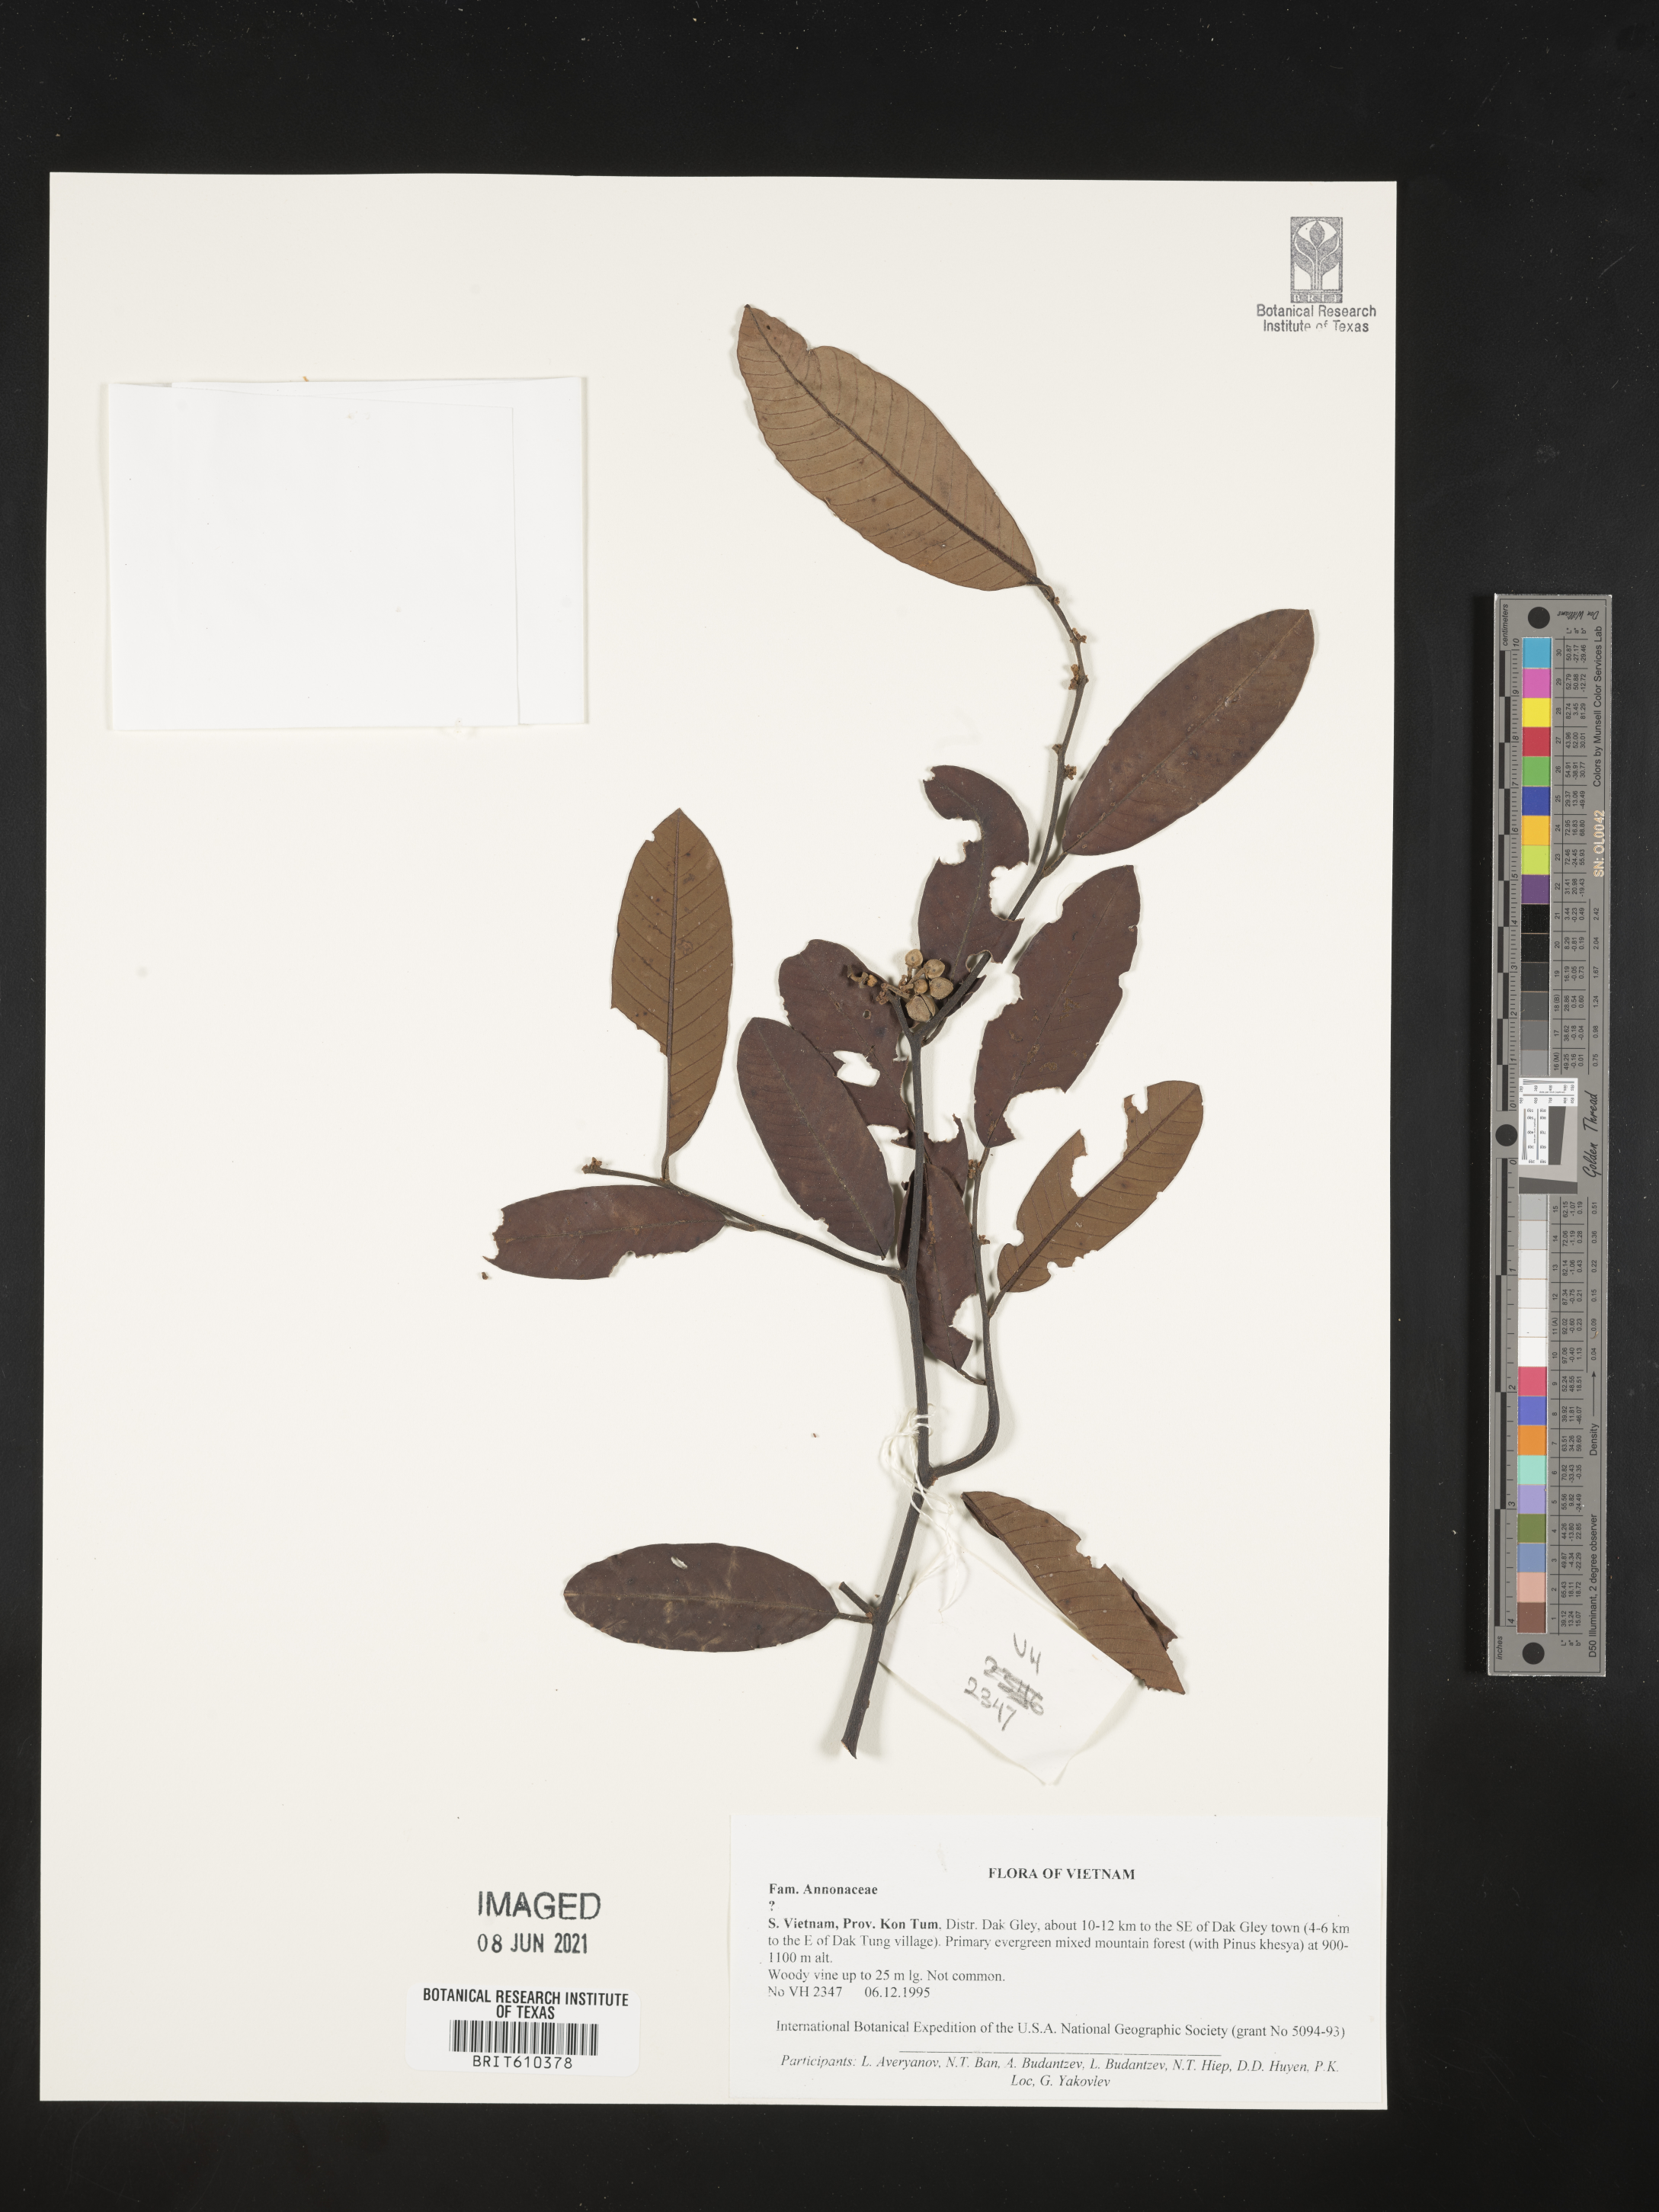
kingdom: Plantae
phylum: Tracheophyta
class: Magnoliopsida
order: Magnoliales
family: Annonaceae
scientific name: Annonaceae
